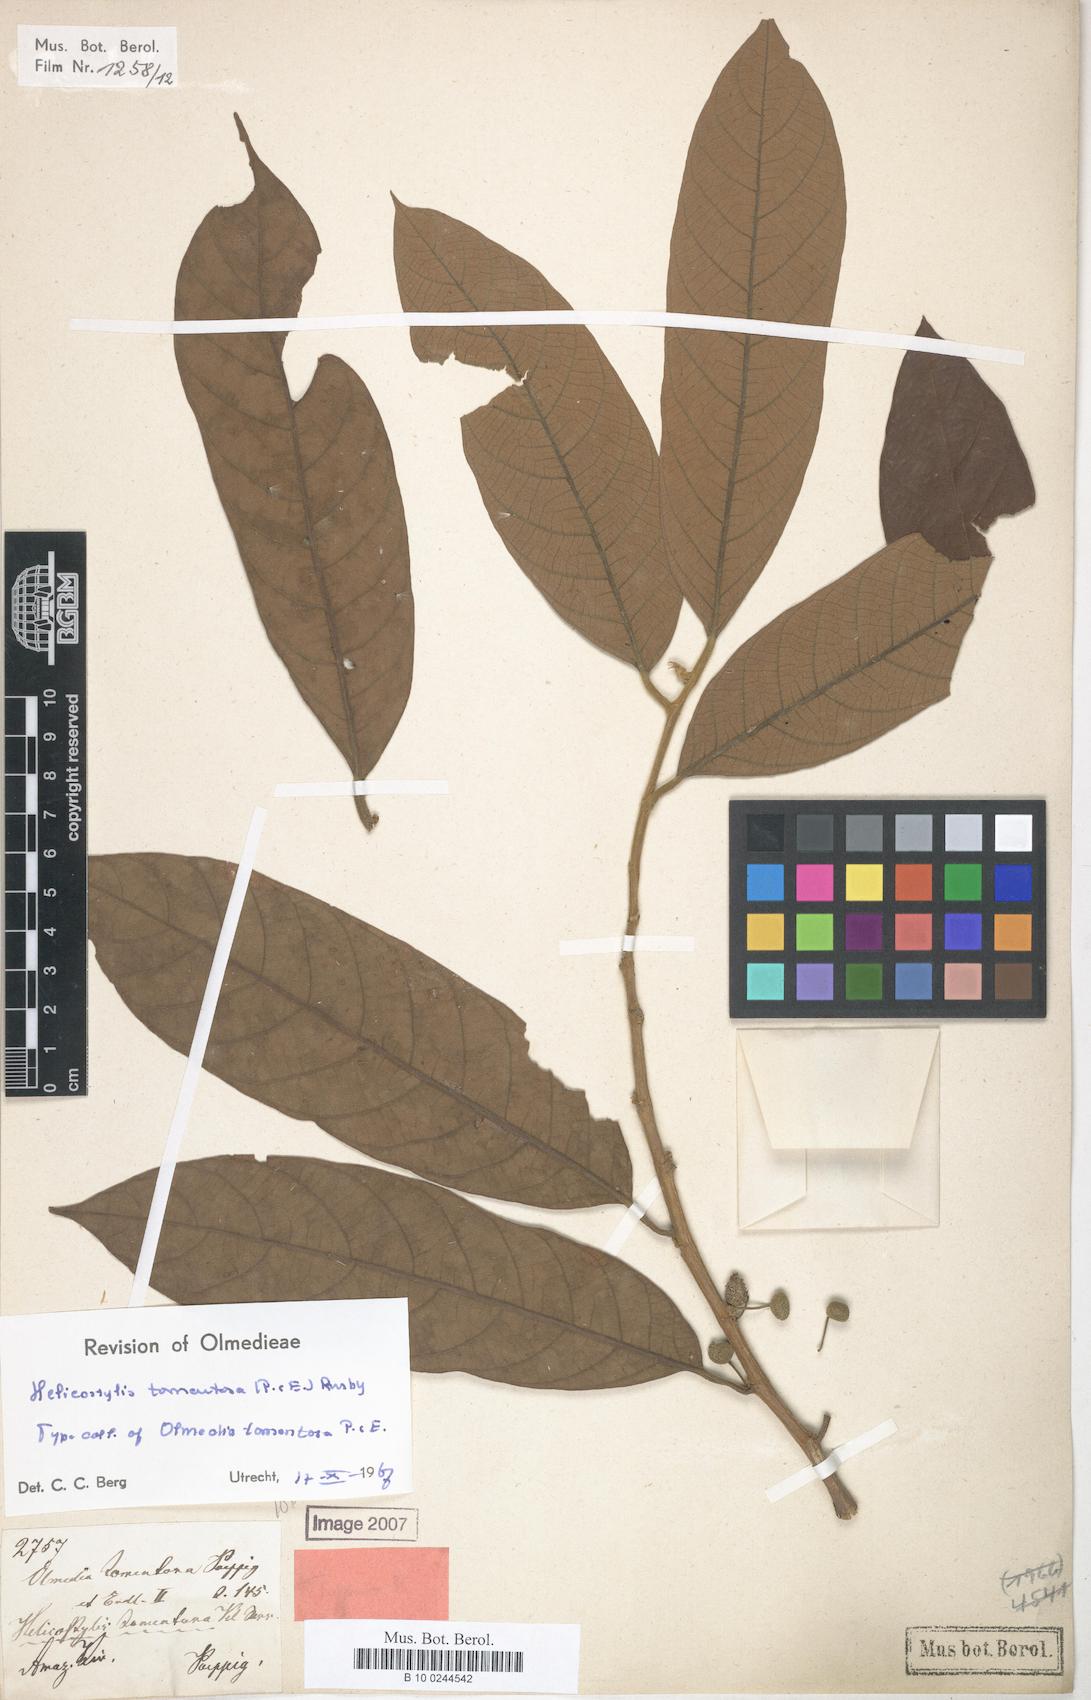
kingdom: Plantae
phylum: Tracheophyta
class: Magnoliopsida
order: Rosales
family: Moraceae
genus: Helicostylis
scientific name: Helicostylis tomentosa
